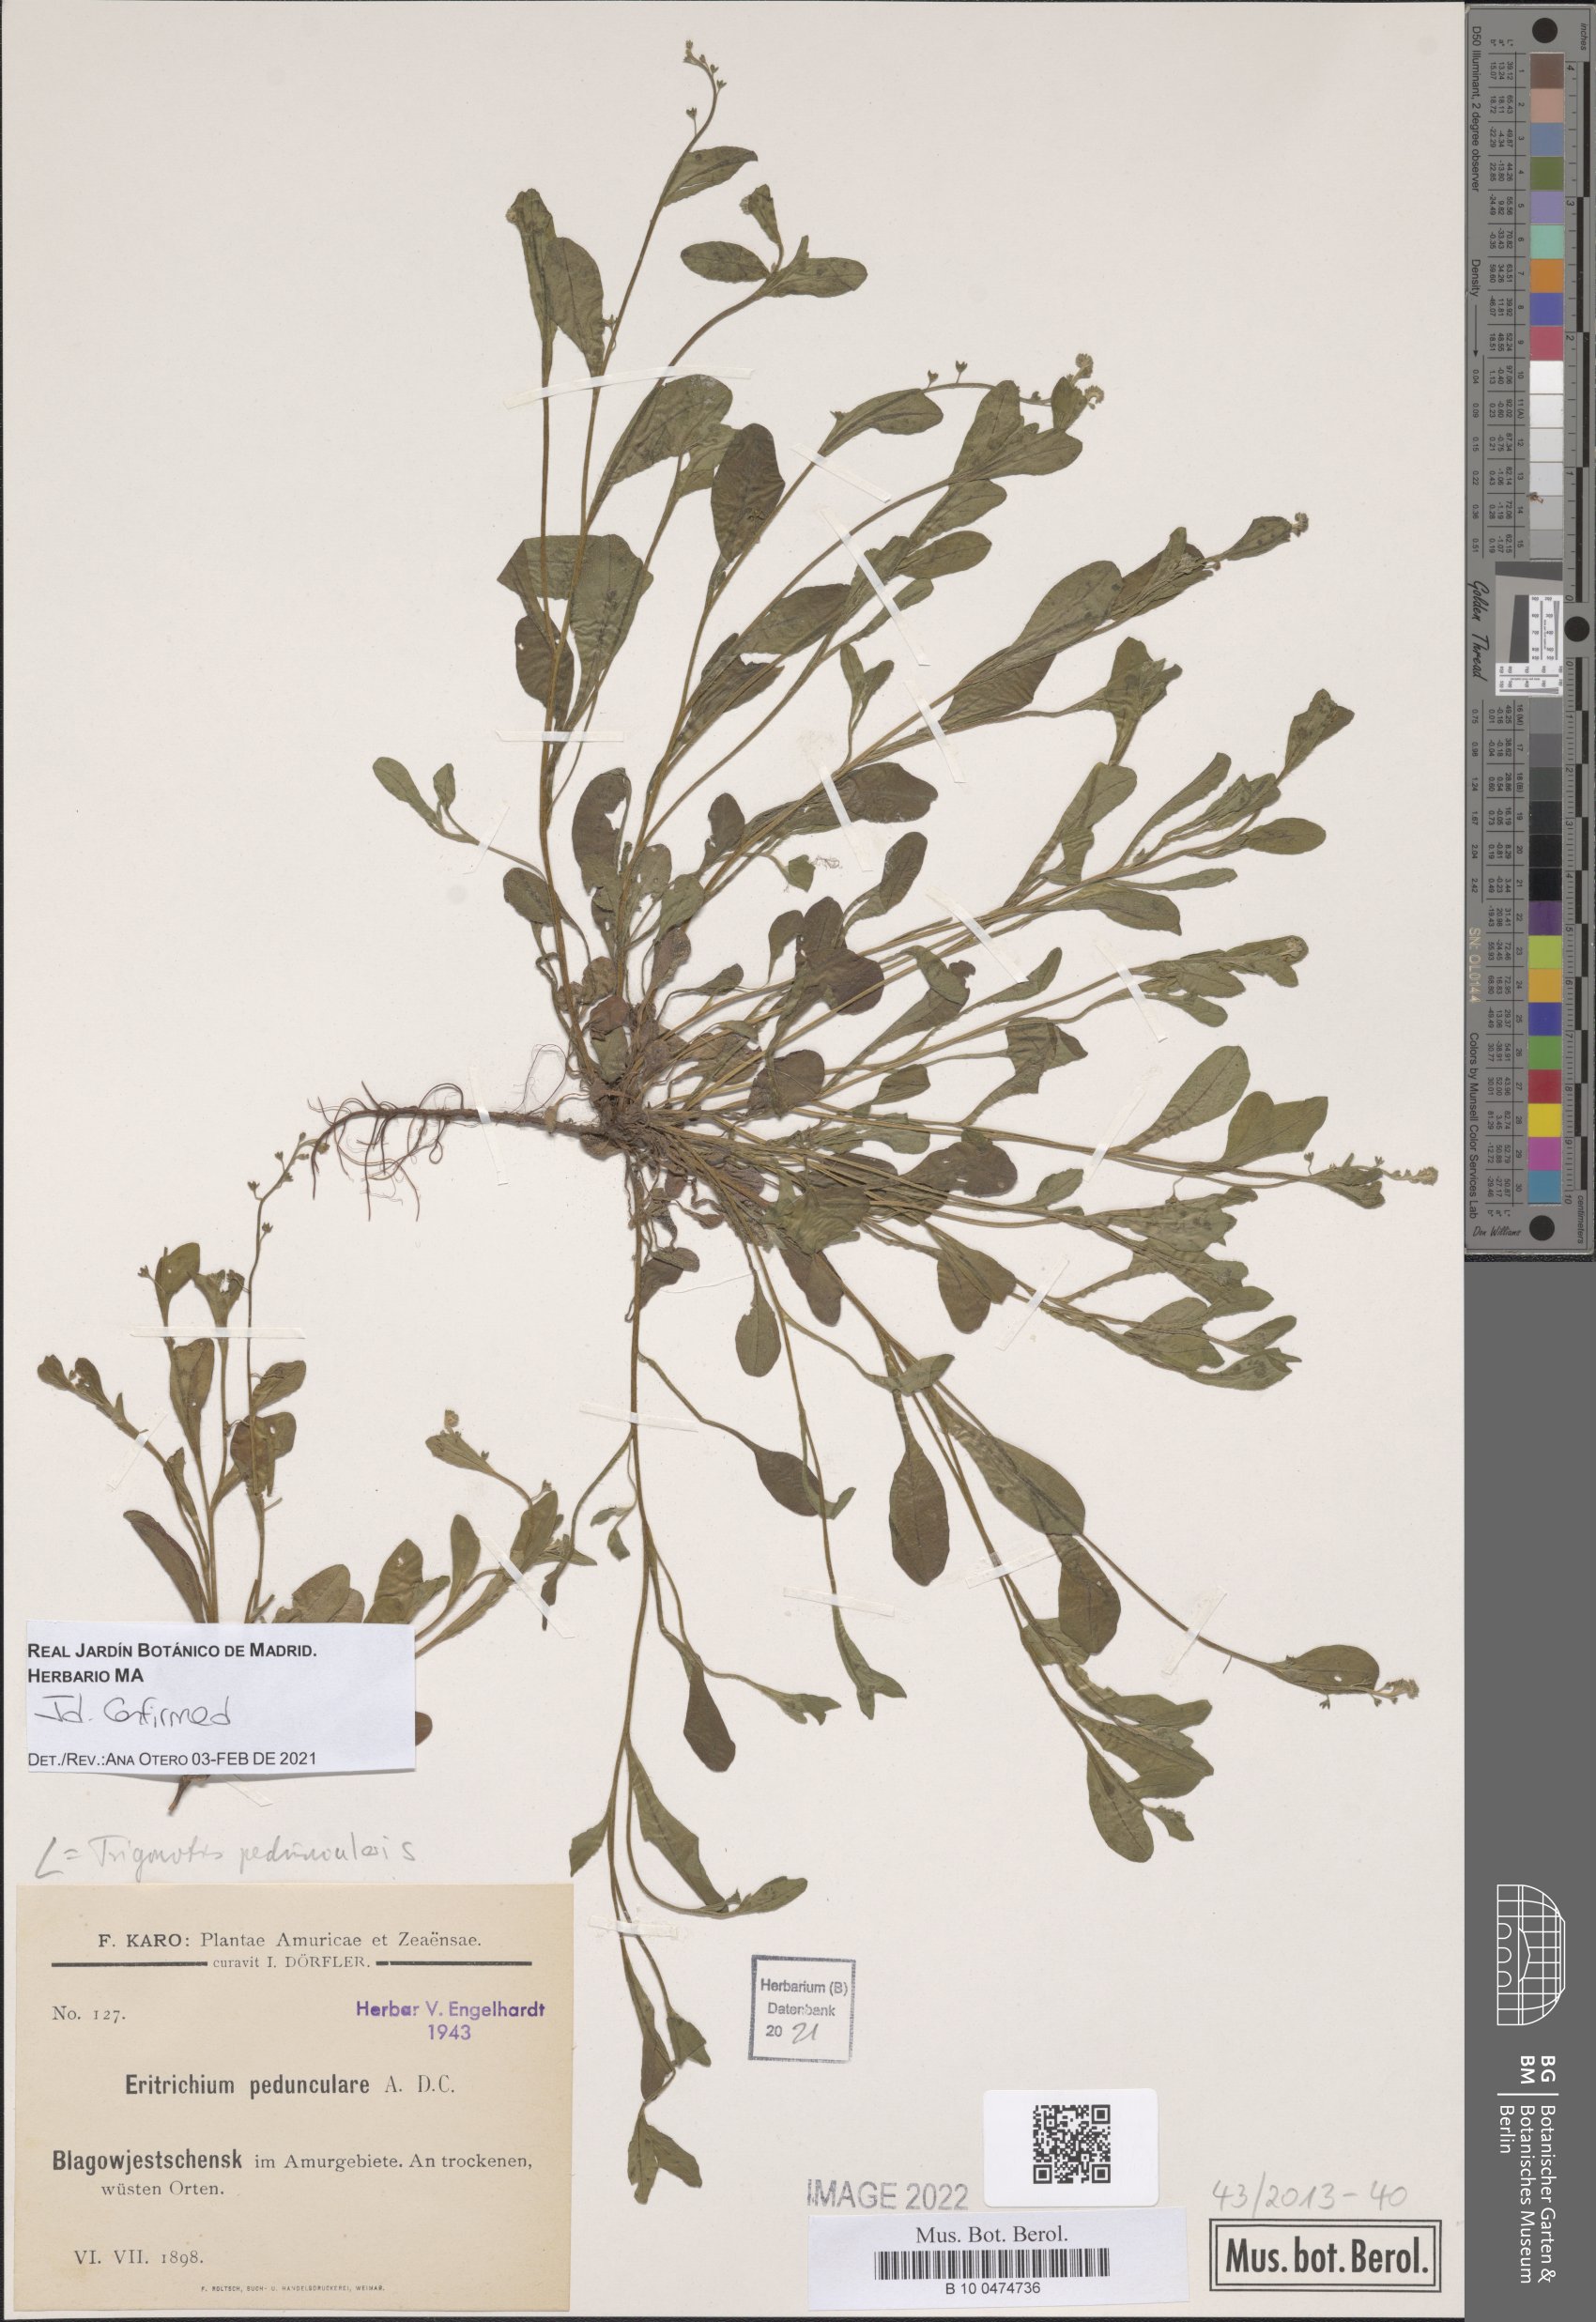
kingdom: Plantae
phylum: Tracheophyta
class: Magnoliopsida
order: Boraginales
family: Boraginaceae
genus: Trigonotis
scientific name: Trigonotis peduncularis
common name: Cucumber herb
